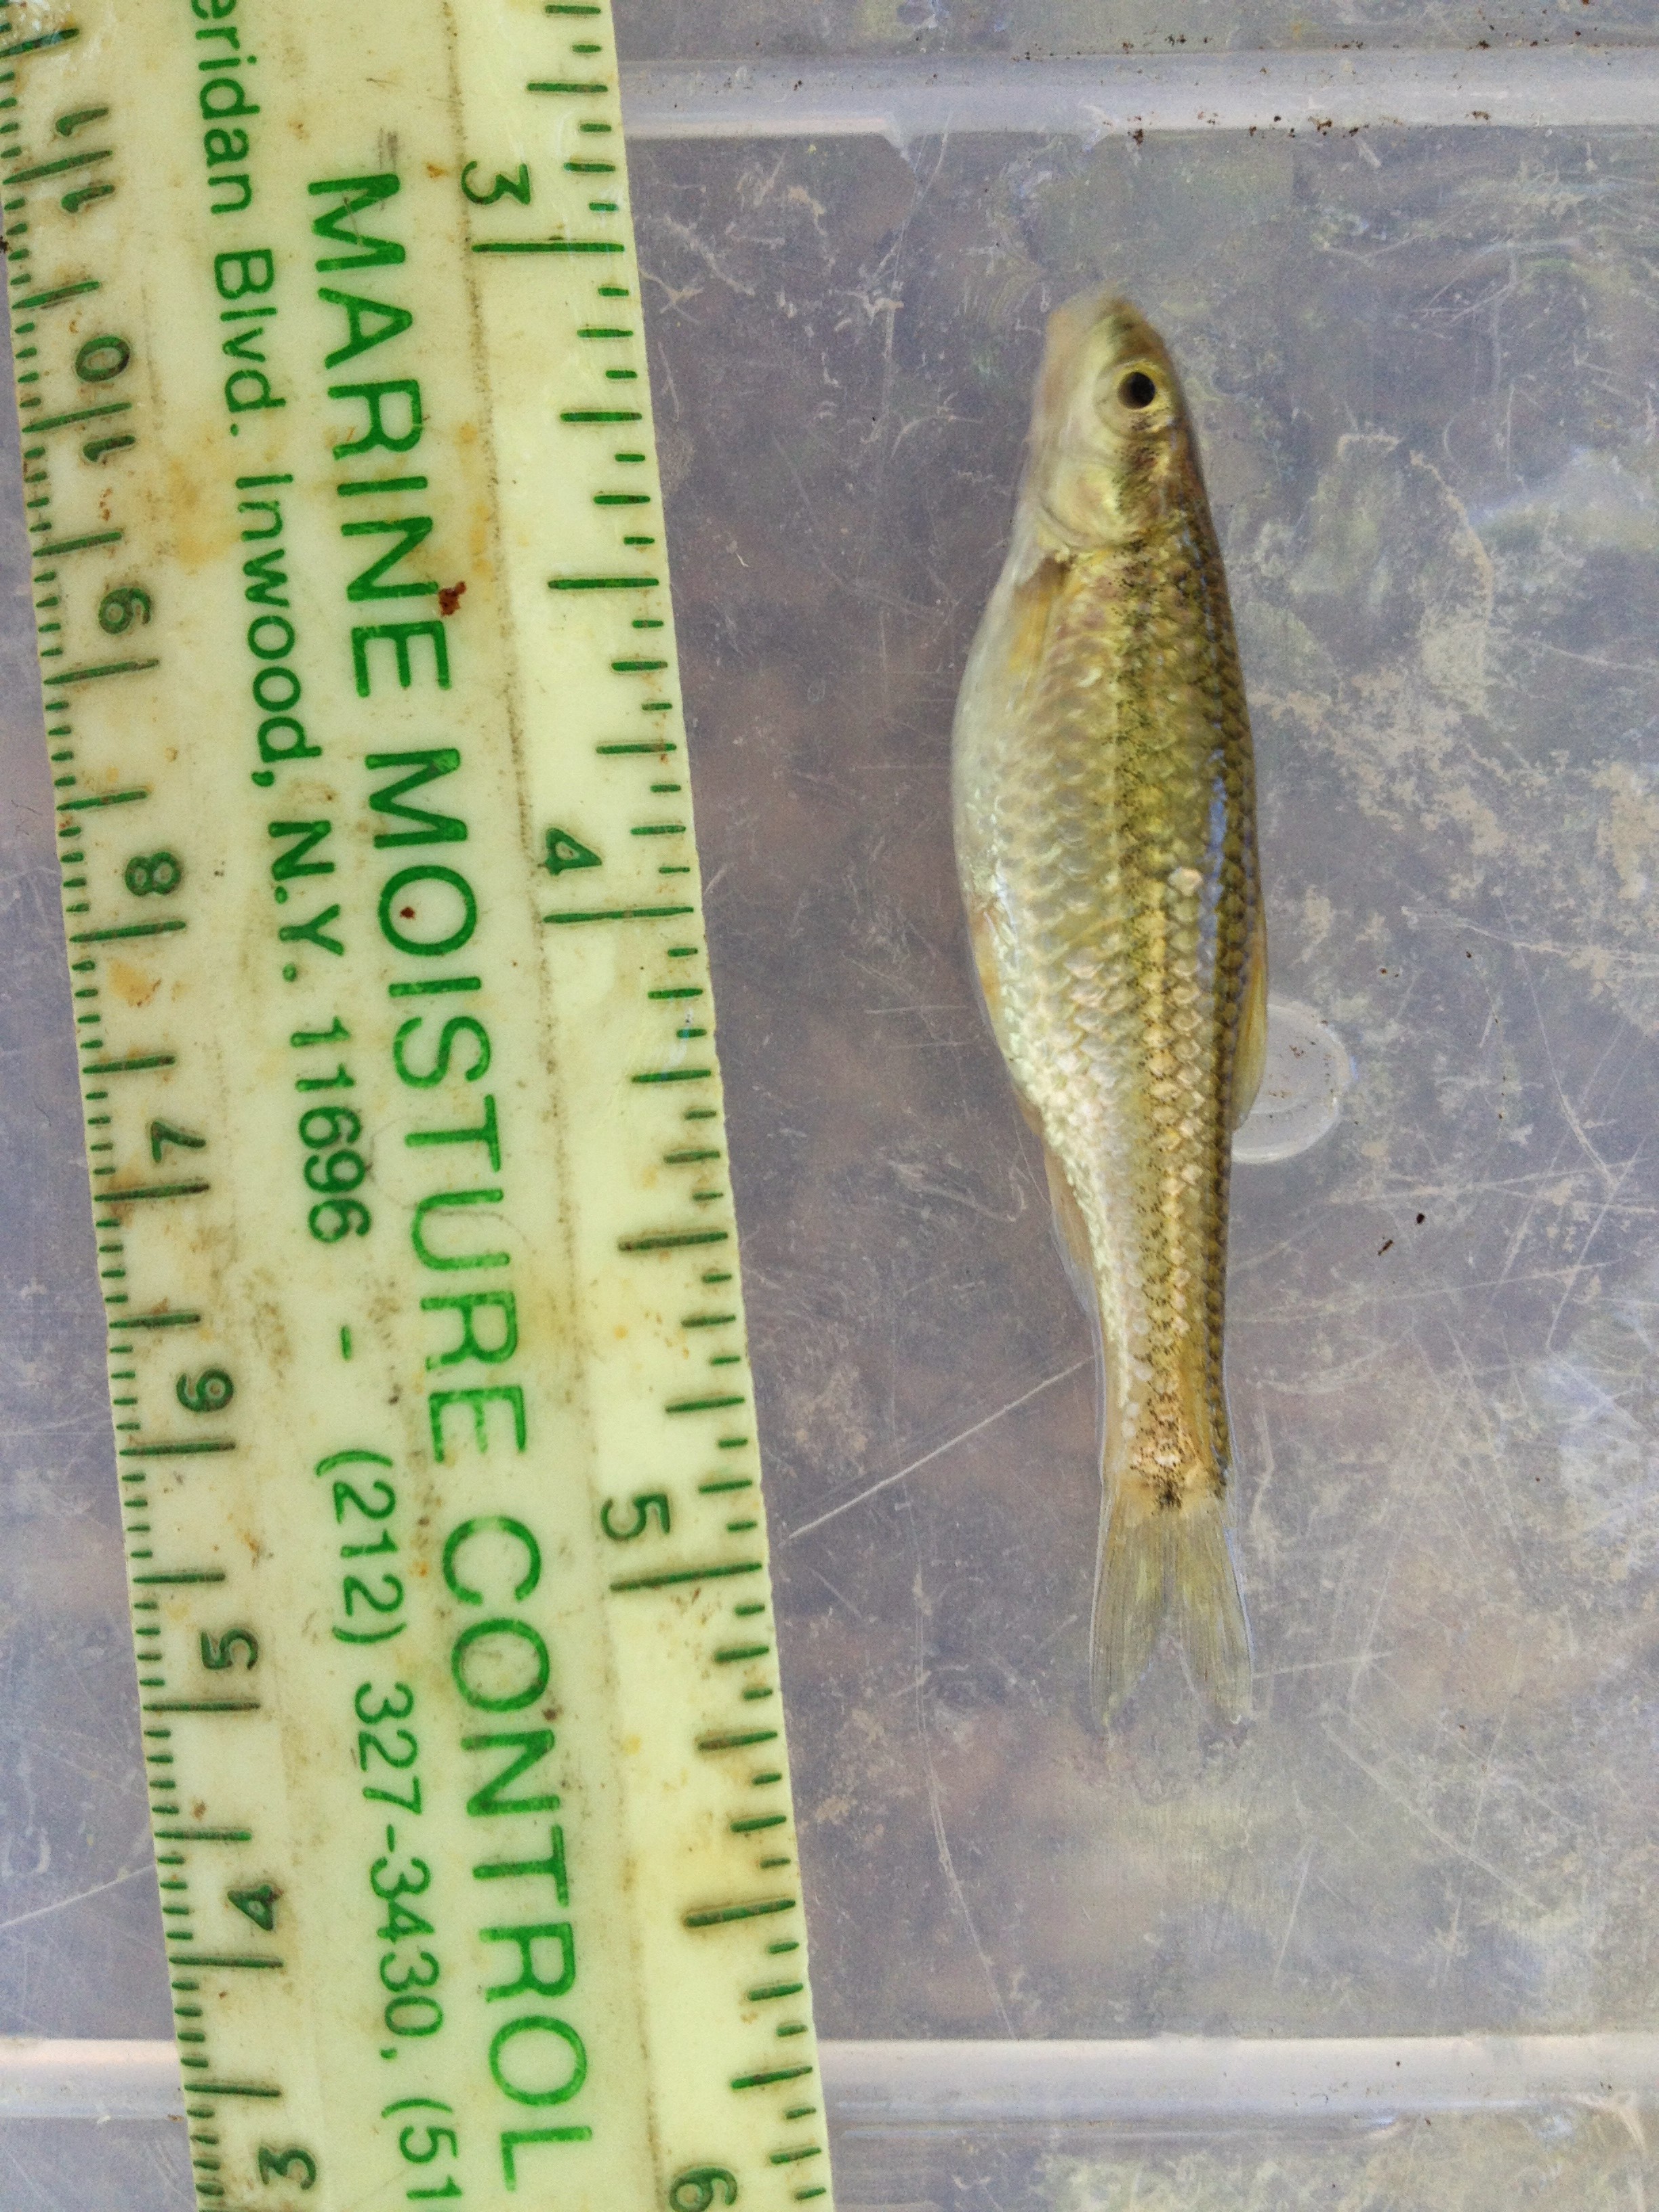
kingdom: Animalia
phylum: Chordata
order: Cypriniformes
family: Cyprinidae
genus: Dionda
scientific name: Dionda serena
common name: Nueces roundnose minnow
